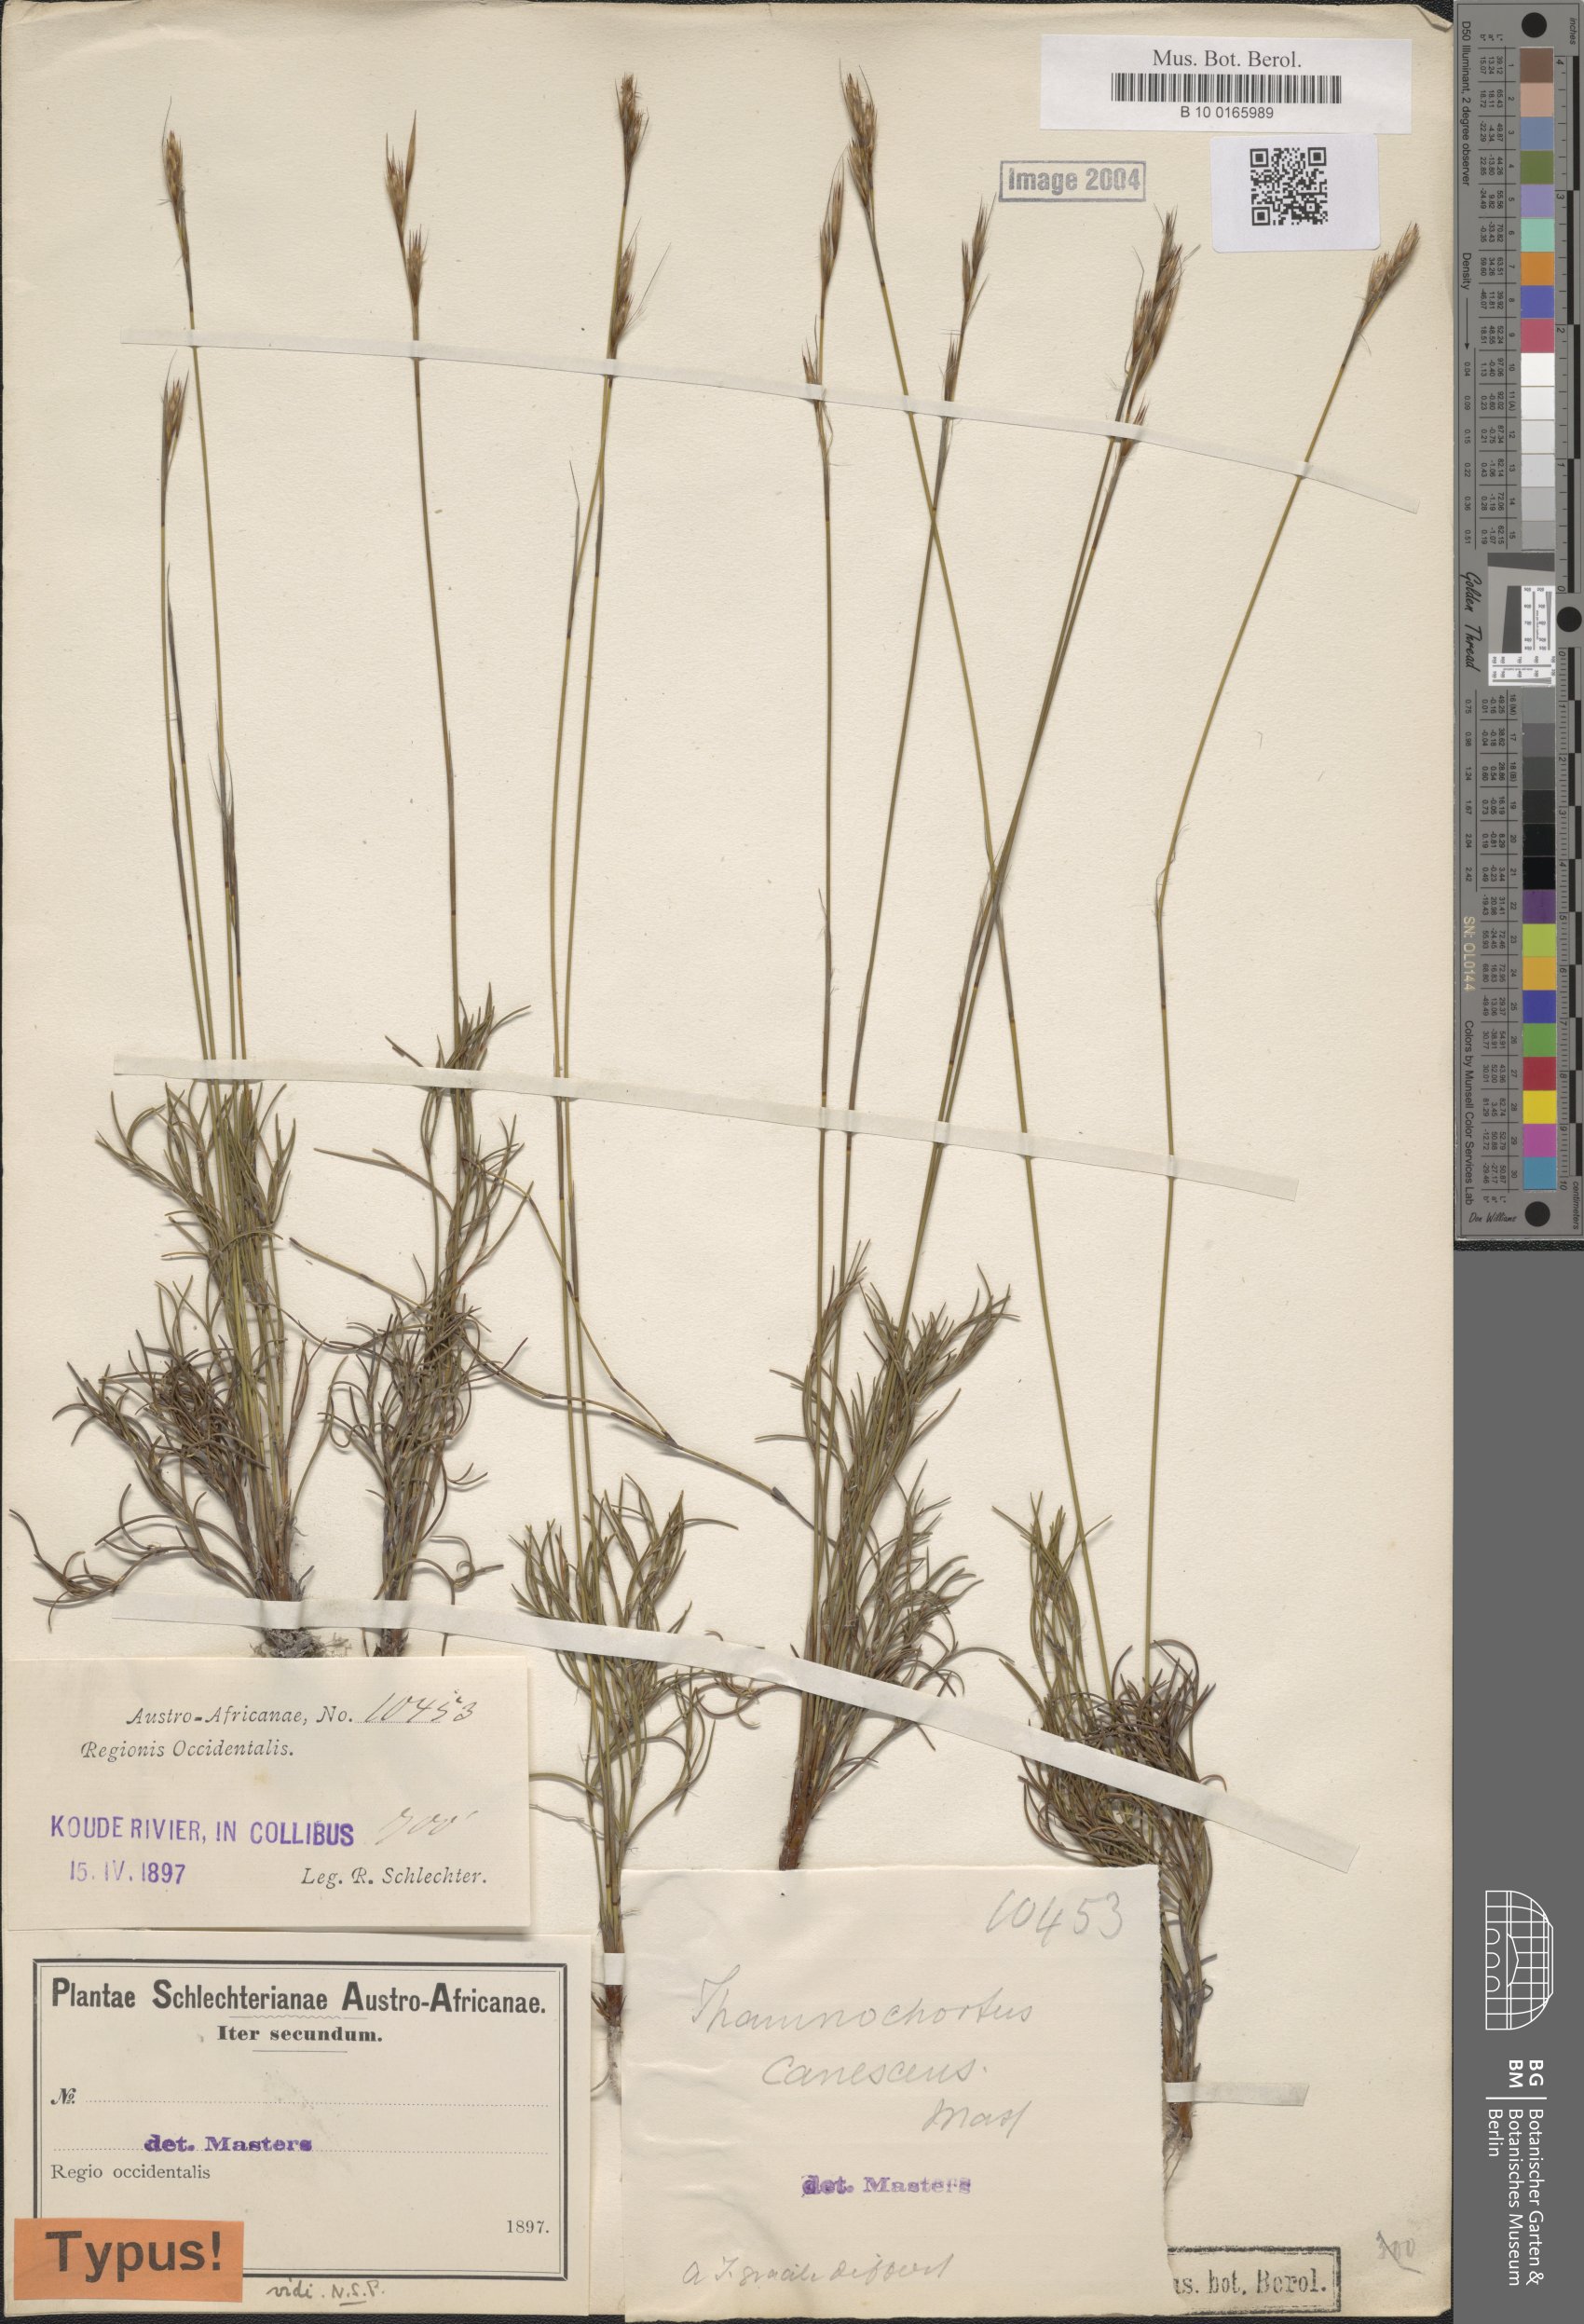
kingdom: Plantae
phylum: Tracheophyta
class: Liliopsida
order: Poales
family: Restionaceae
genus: Thamnochortus
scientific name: Thamnochortus dumosus
